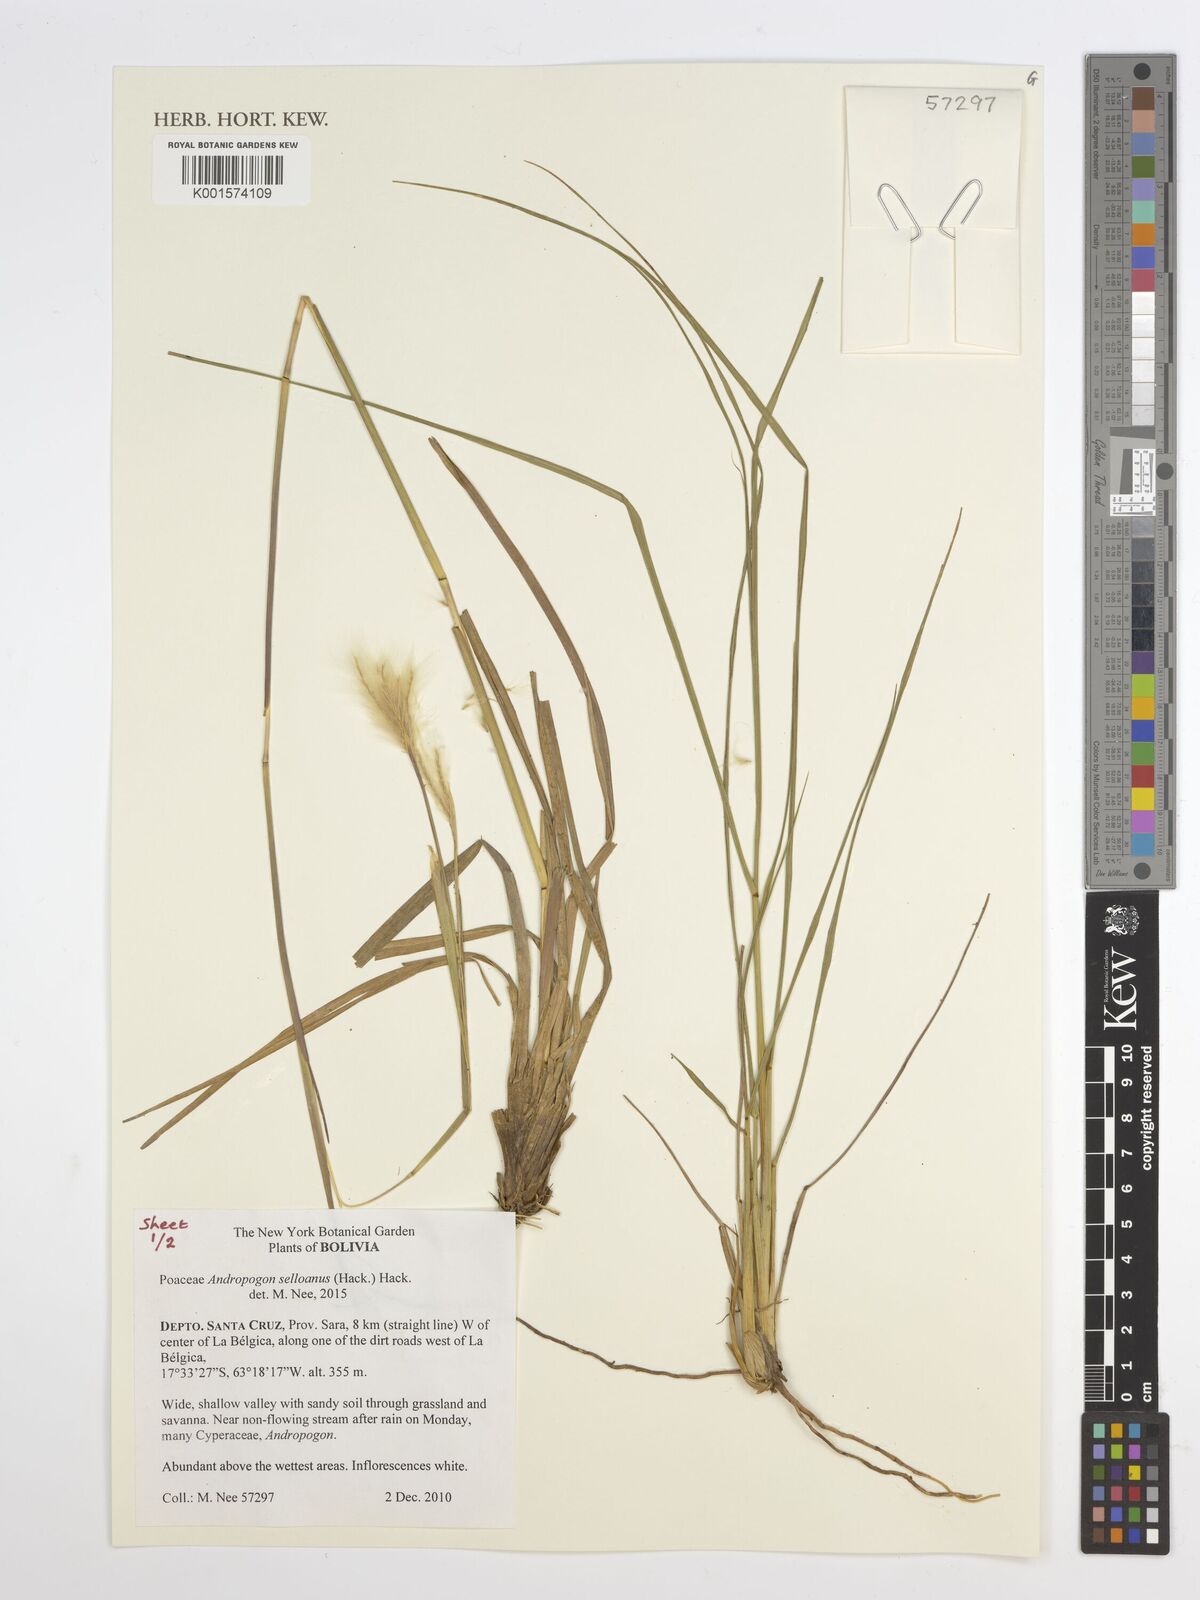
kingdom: Plantae
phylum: Tracheophyta
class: Liliopsida
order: Poales
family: Poaceae
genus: Andropogon
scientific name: Andropogon selloanus
